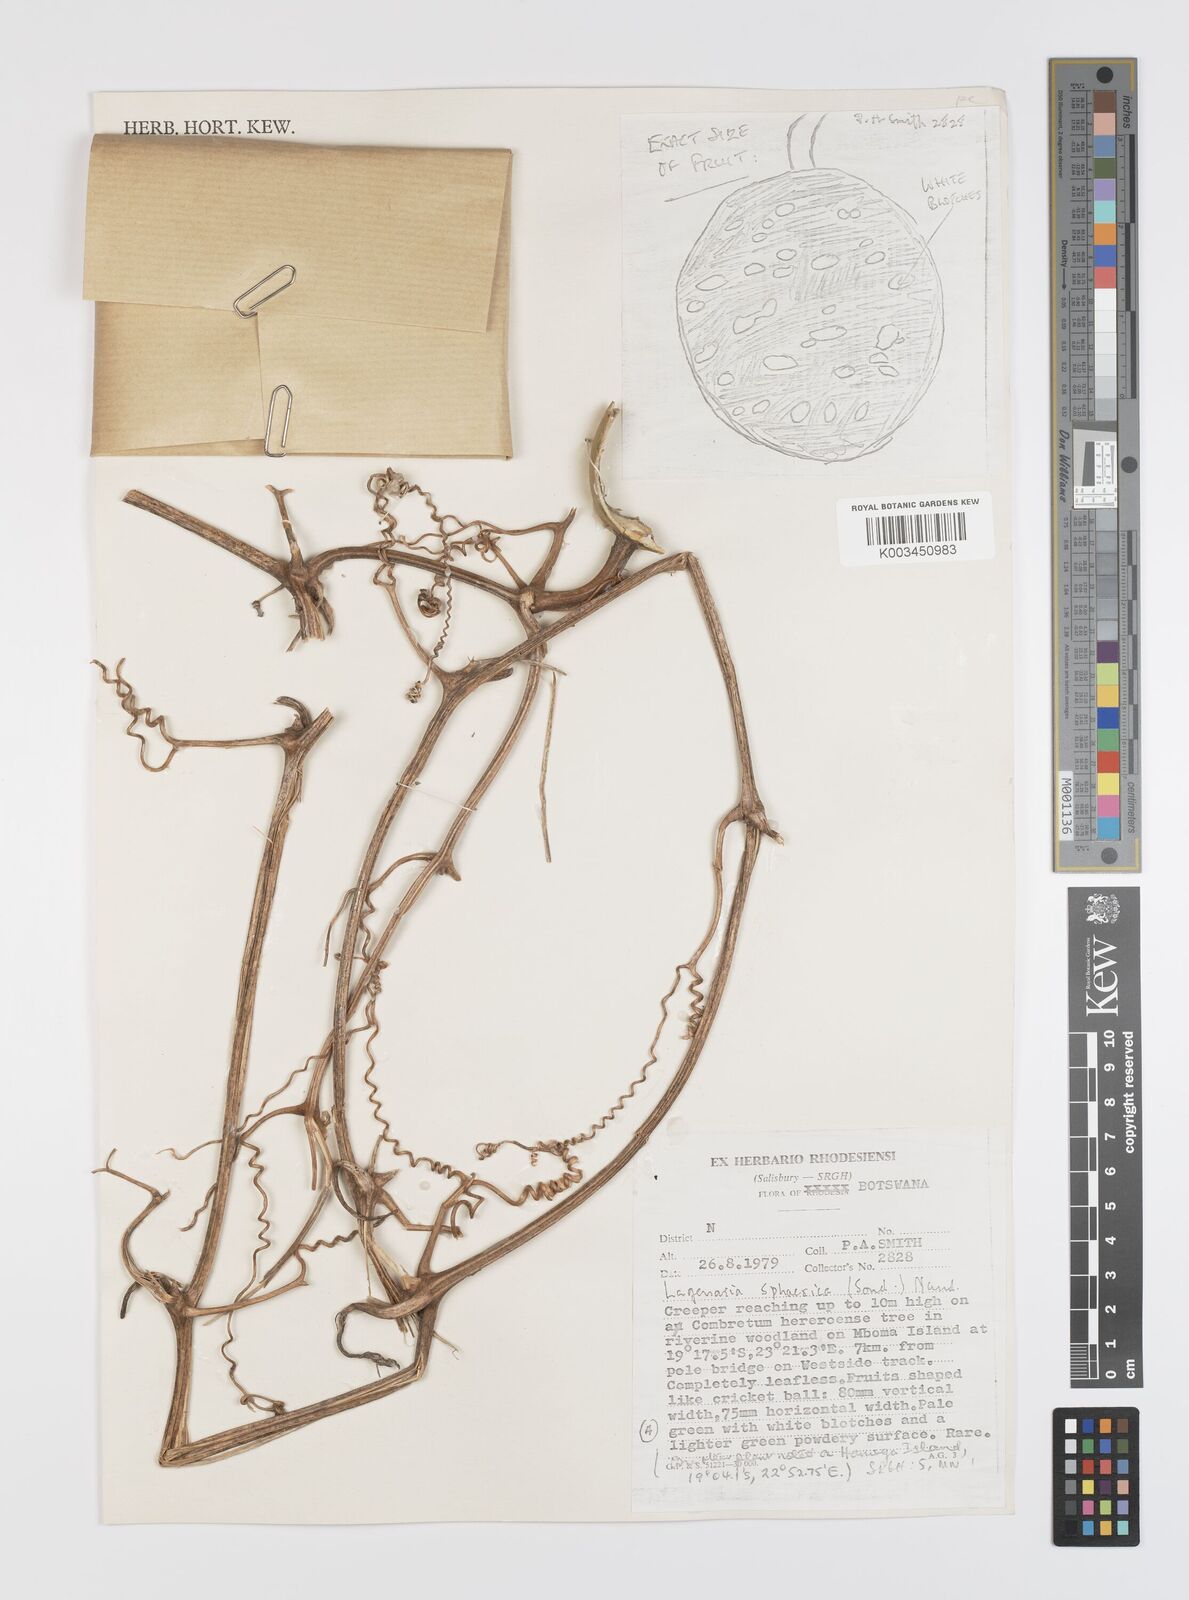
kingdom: Plantae
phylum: Tracheophyta
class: Magnoliopsida
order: Cucurbitales
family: Cucurbitaceae
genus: Lagenaria
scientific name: Lagenaria sphaerica
